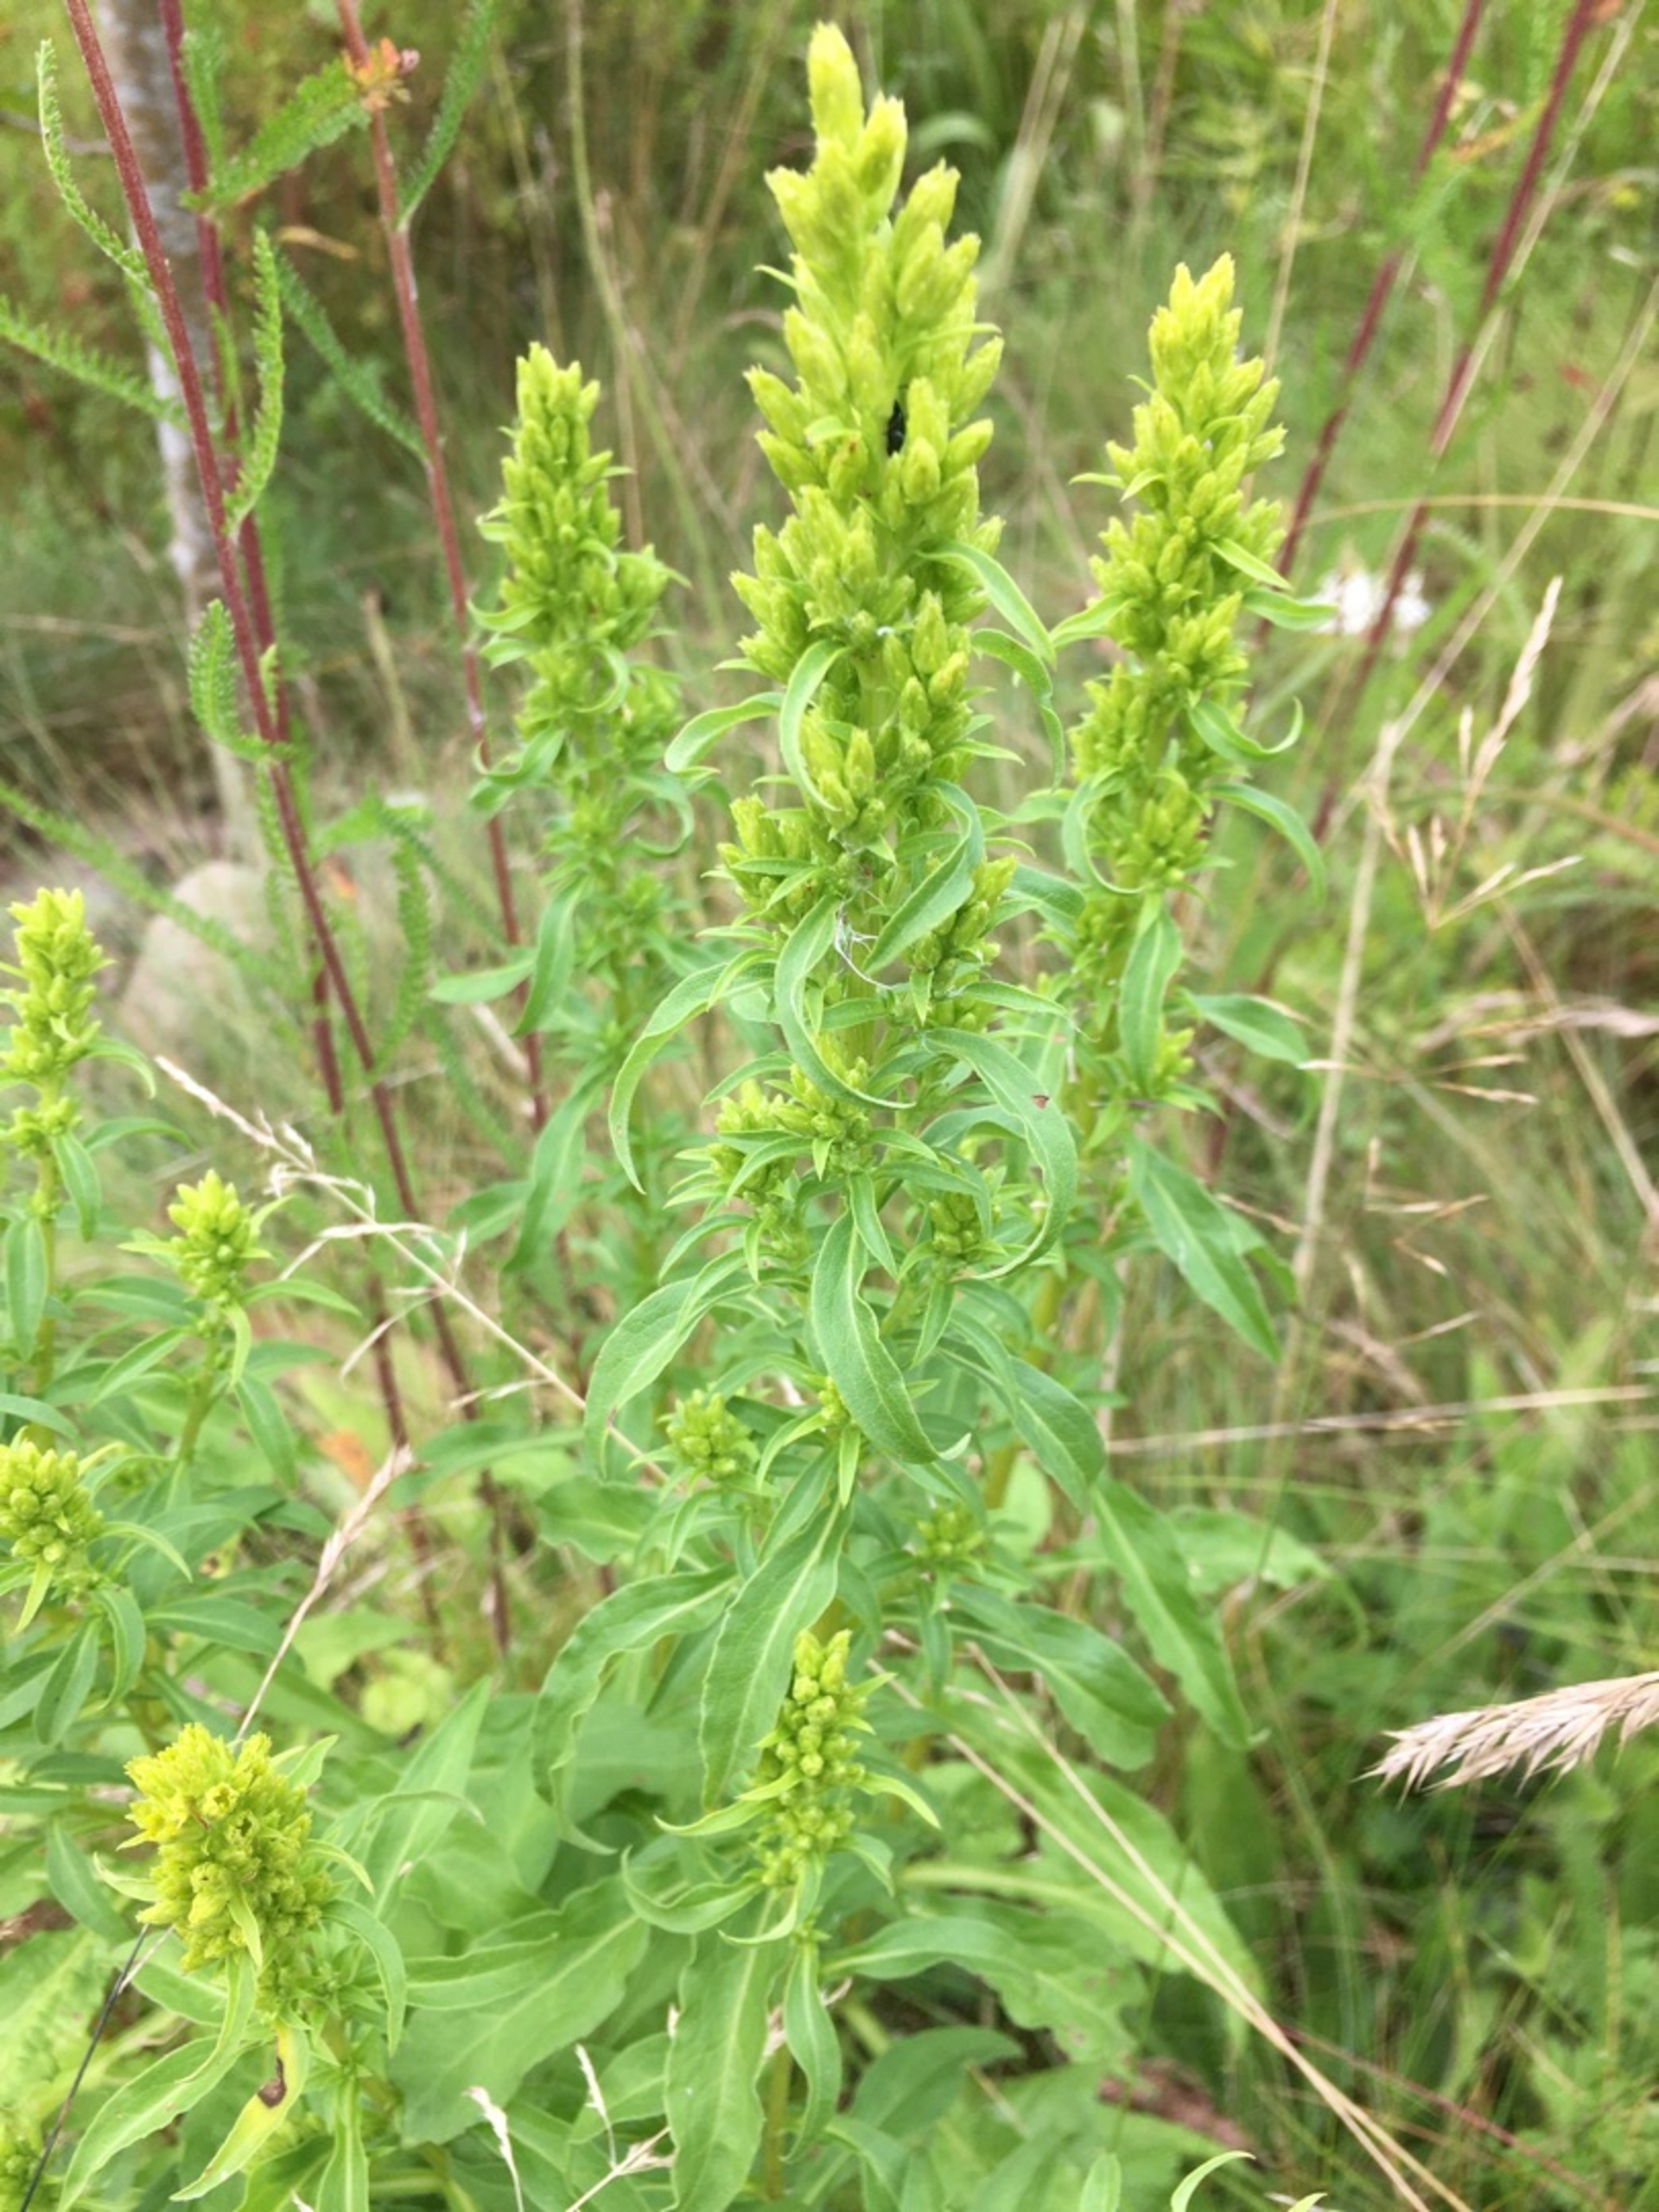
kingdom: Plantae
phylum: Tracheophyta
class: Magnoliopsida
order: Asterales
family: Asteraceae
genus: Solidago
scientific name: Solidago virgaurea
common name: Almindelig gyldenris
